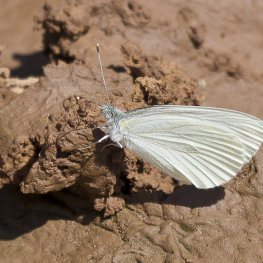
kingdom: Animalia
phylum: Arthropoda
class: Insecta
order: Lepidoptera
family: Pieridae
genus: Pieris
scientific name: Pieris oleracea
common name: Mustard White
